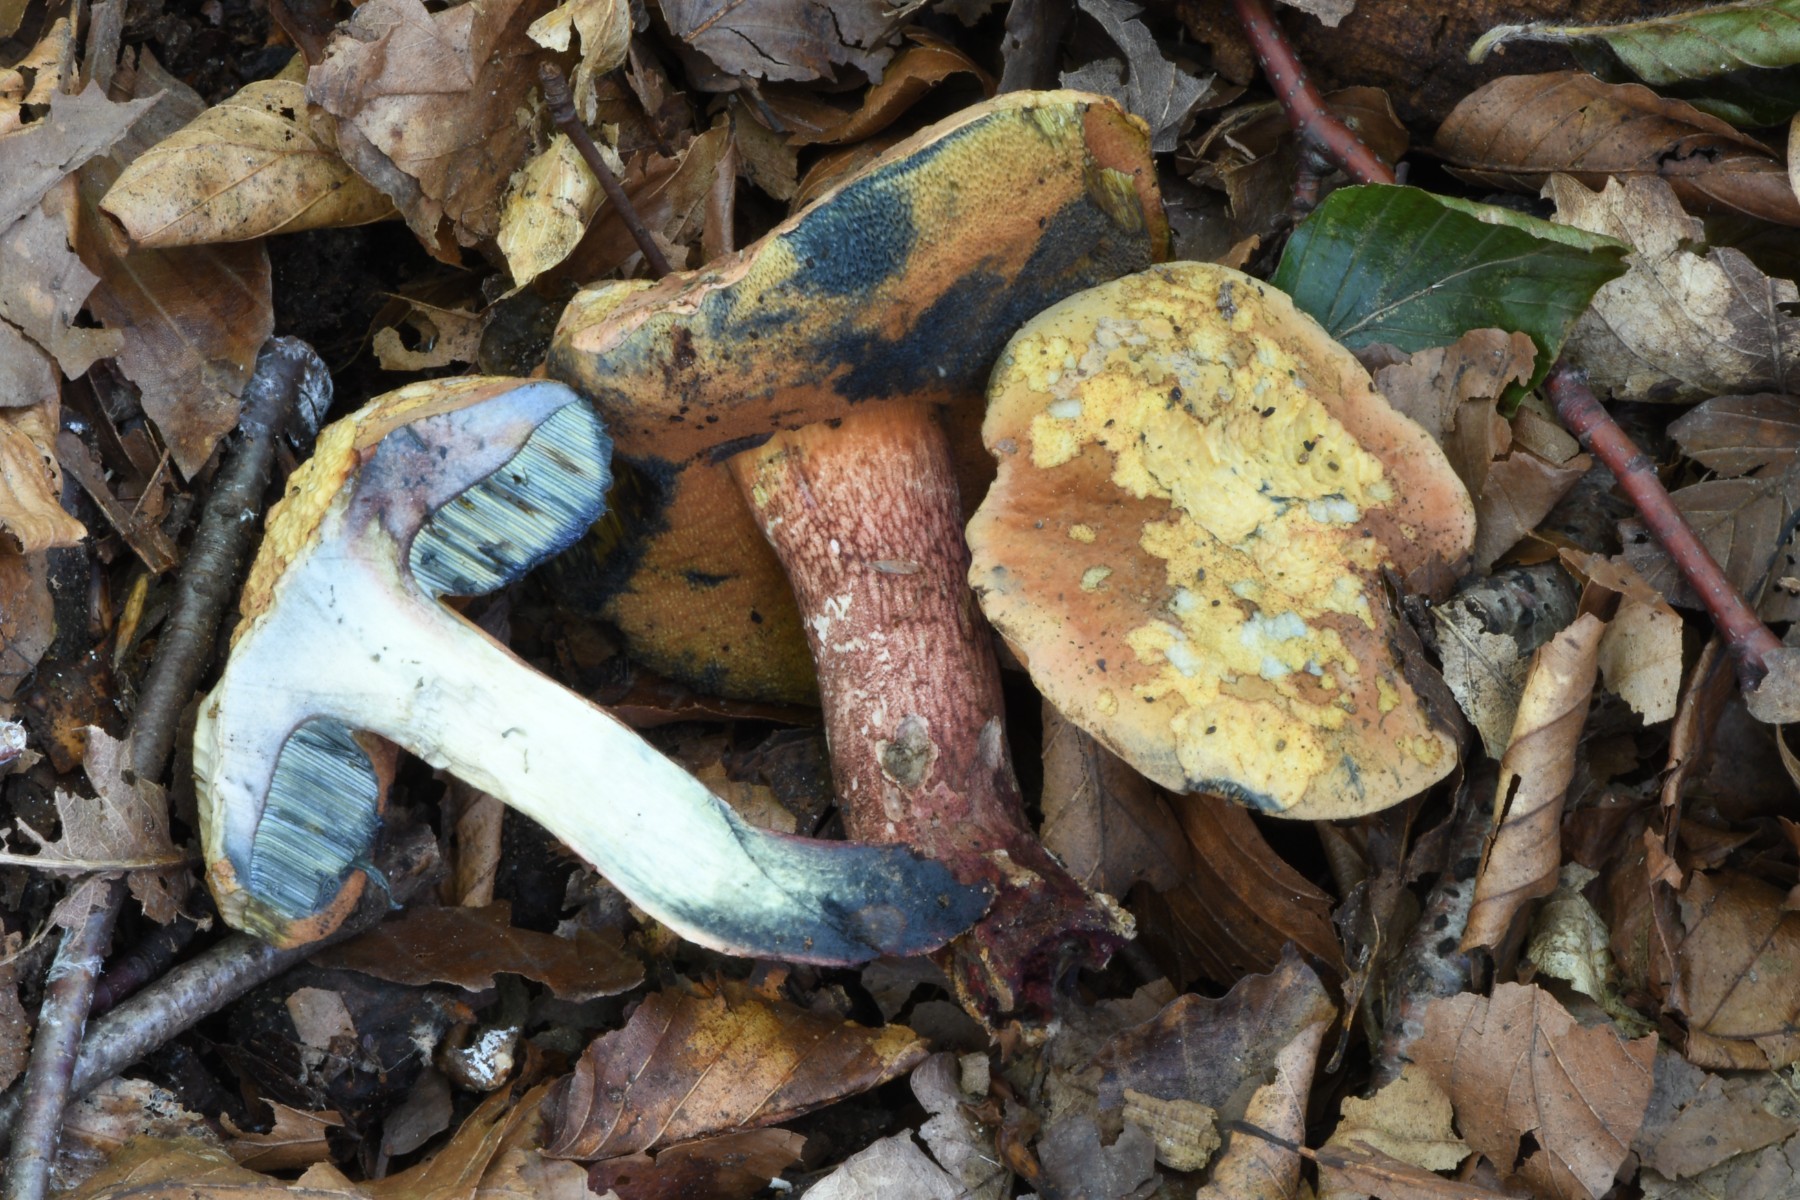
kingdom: Fungi
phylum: Basidiomycota
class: Agaricomycetes
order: Boletales
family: Boletaceae
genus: Suillellus
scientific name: Suillellus mendax
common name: joker-indigorørhat
